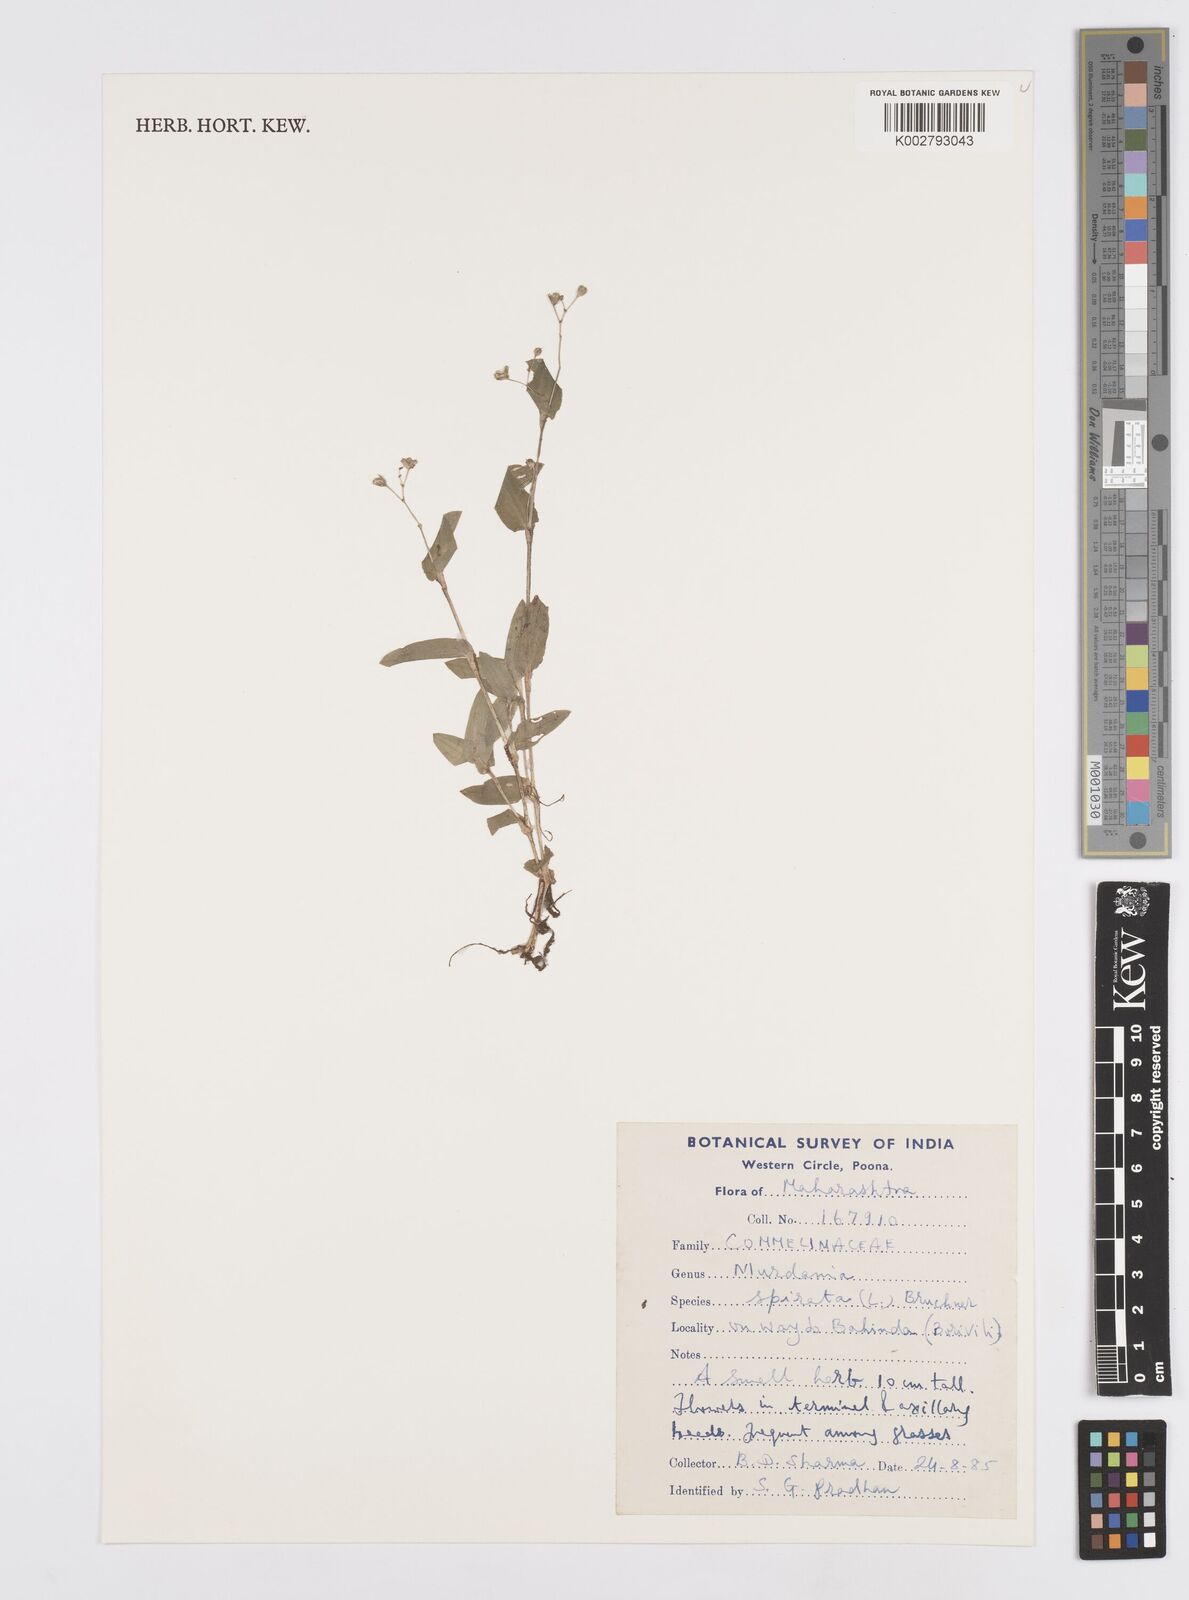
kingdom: Plantae
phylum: Tracheophyta
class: Liliopsida
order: Commelinales
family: Commelinaceae
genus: Murdannia
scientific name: Murdannia spirata
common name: Asiatic dewflower
